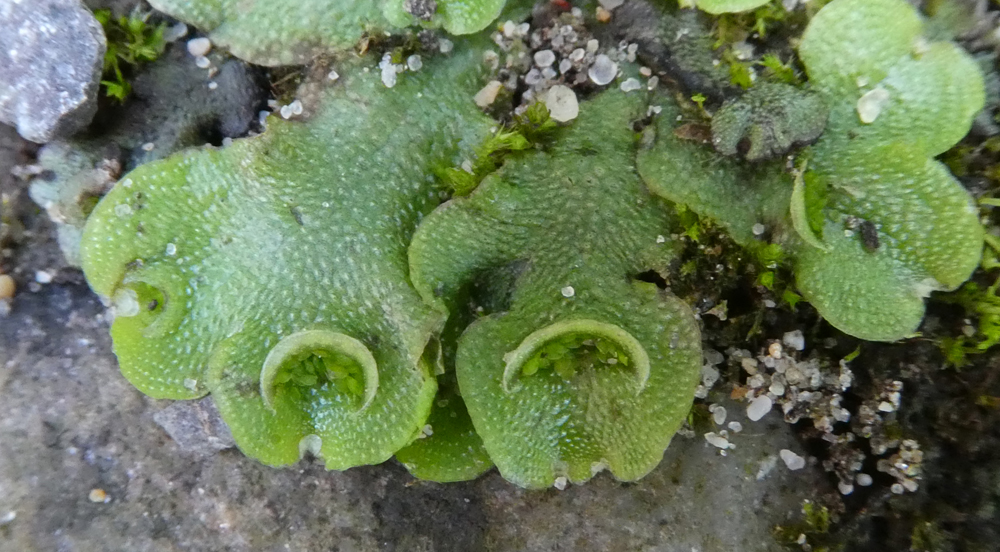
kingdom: Plantae
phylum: Marchantiophyta
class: Marchantiopsida
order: Lunulariales
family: Lunulariaceae
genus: Lunularia
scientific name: Lunularia cruciata
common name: Crescent-cup liverwort
